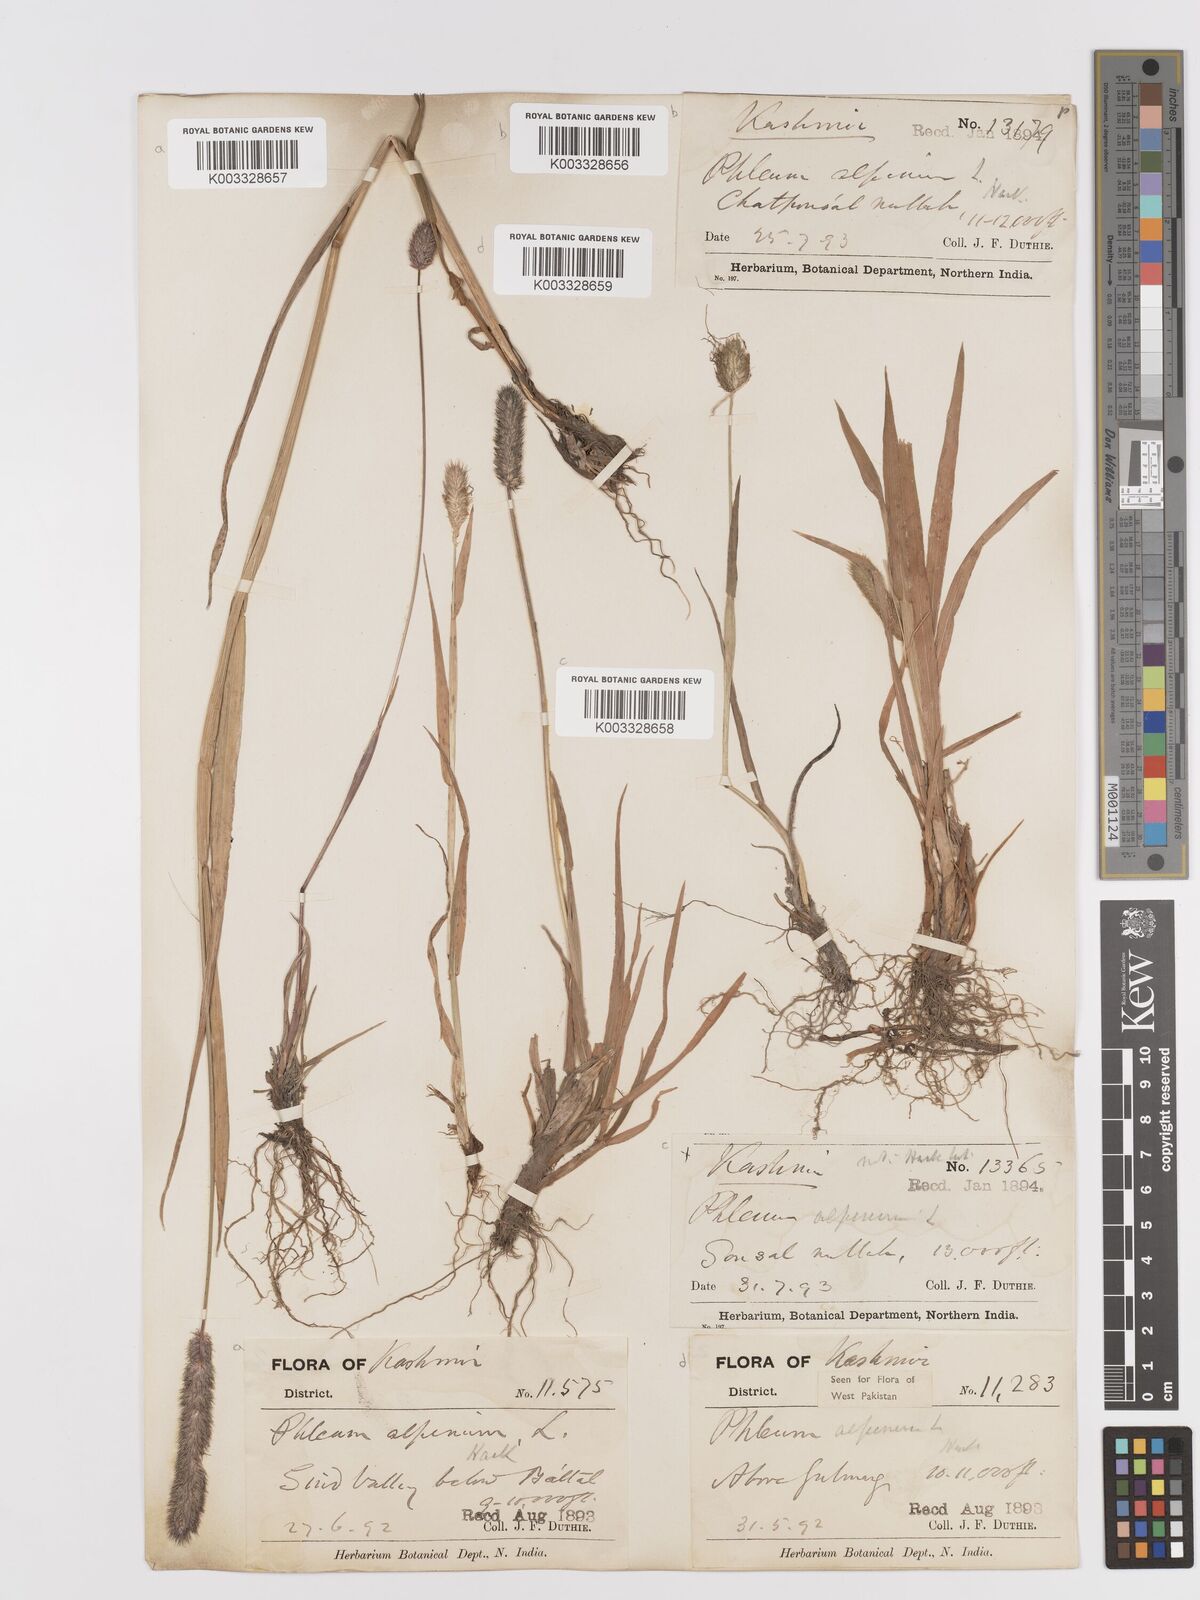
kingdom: Plantae
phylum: Tracheophyta
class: Liliopsida
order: Poales
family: Poaceae
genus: Phleum
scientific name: Phleum alpinum
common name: Alpine cat's-tail
